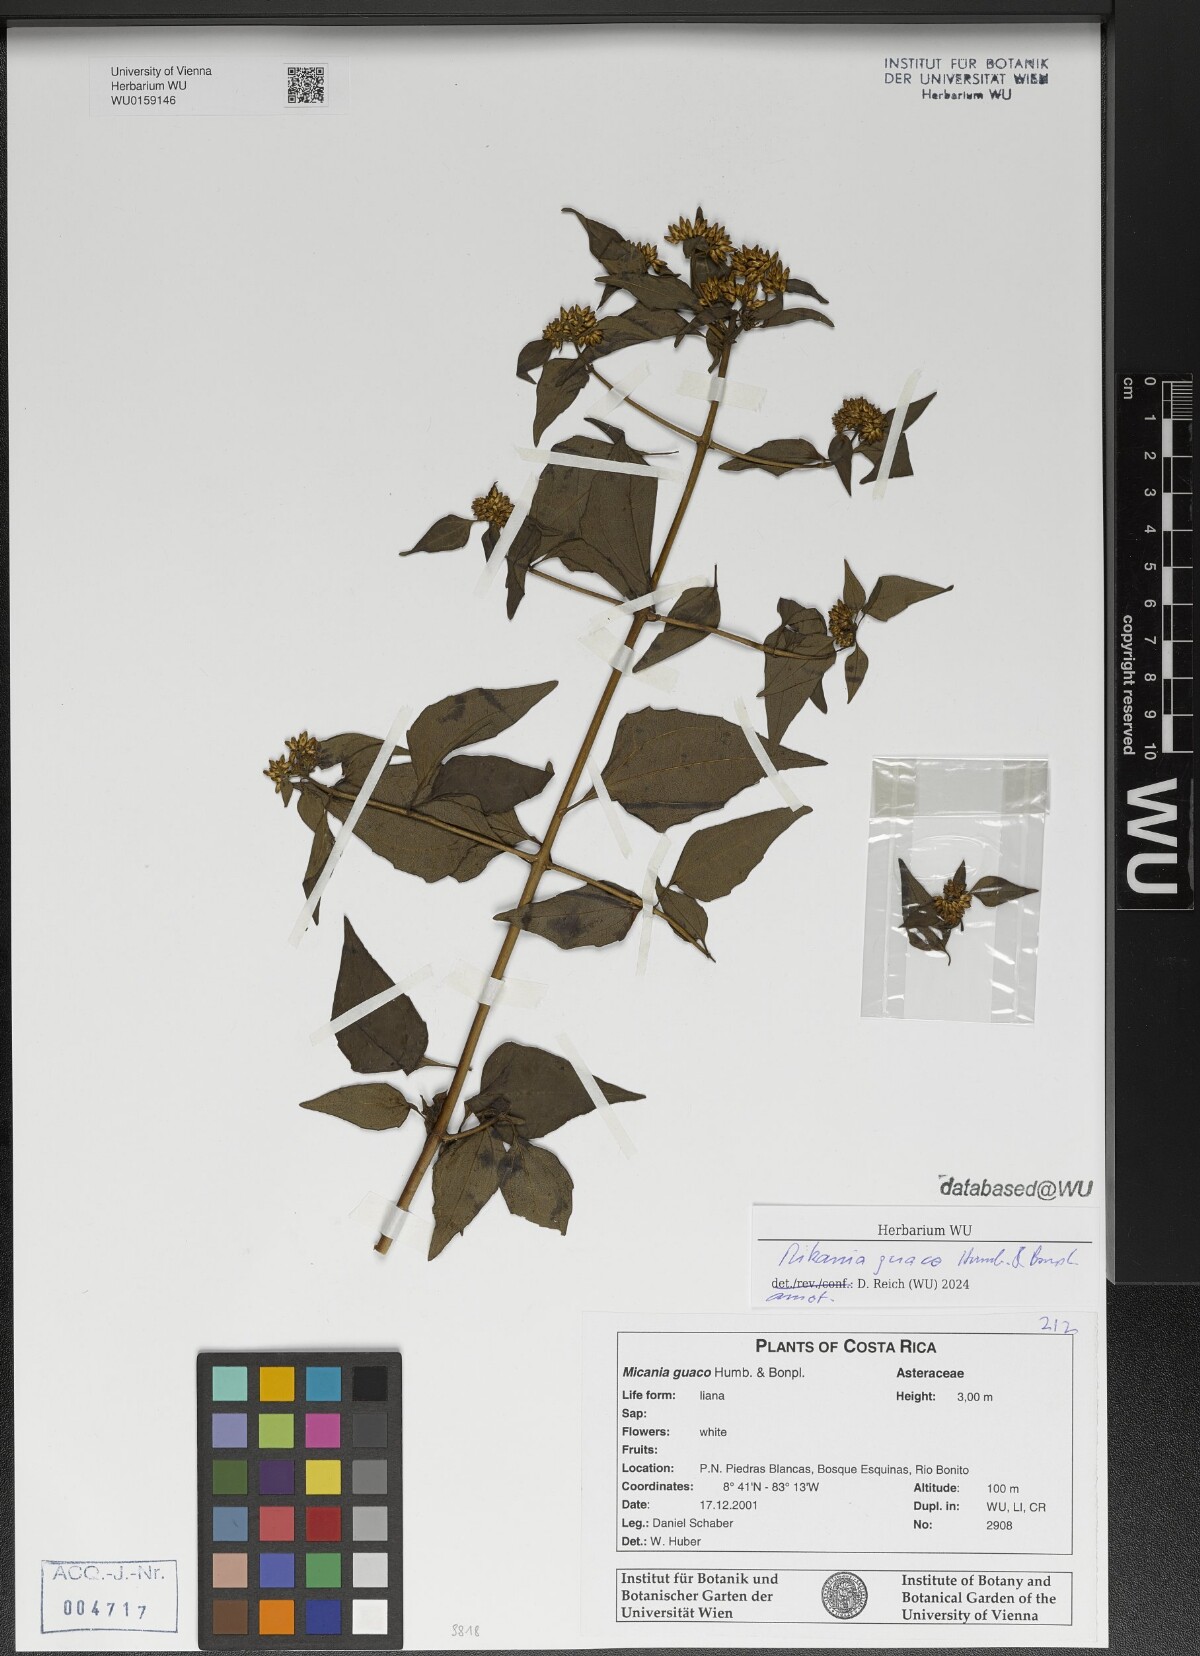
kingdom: Plantae
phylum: Tracheophyta
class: Magnoliopsida
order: Asterales
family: Asteraceae
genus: Mikania
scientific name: Mikania guaco
